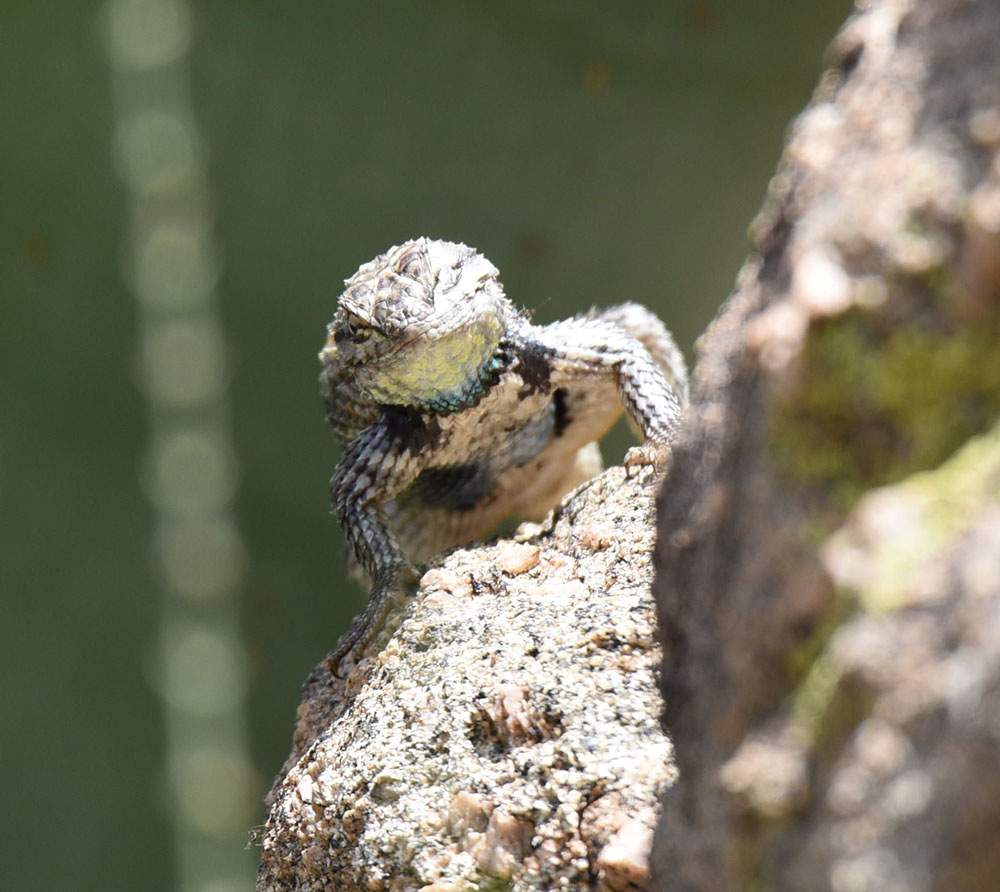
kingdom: Animalia
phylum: Chordata
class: Squamata
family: Phrynosomatidae
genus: Sceloporus
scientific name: Sceloporus magister
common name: Desert spiny lizard
